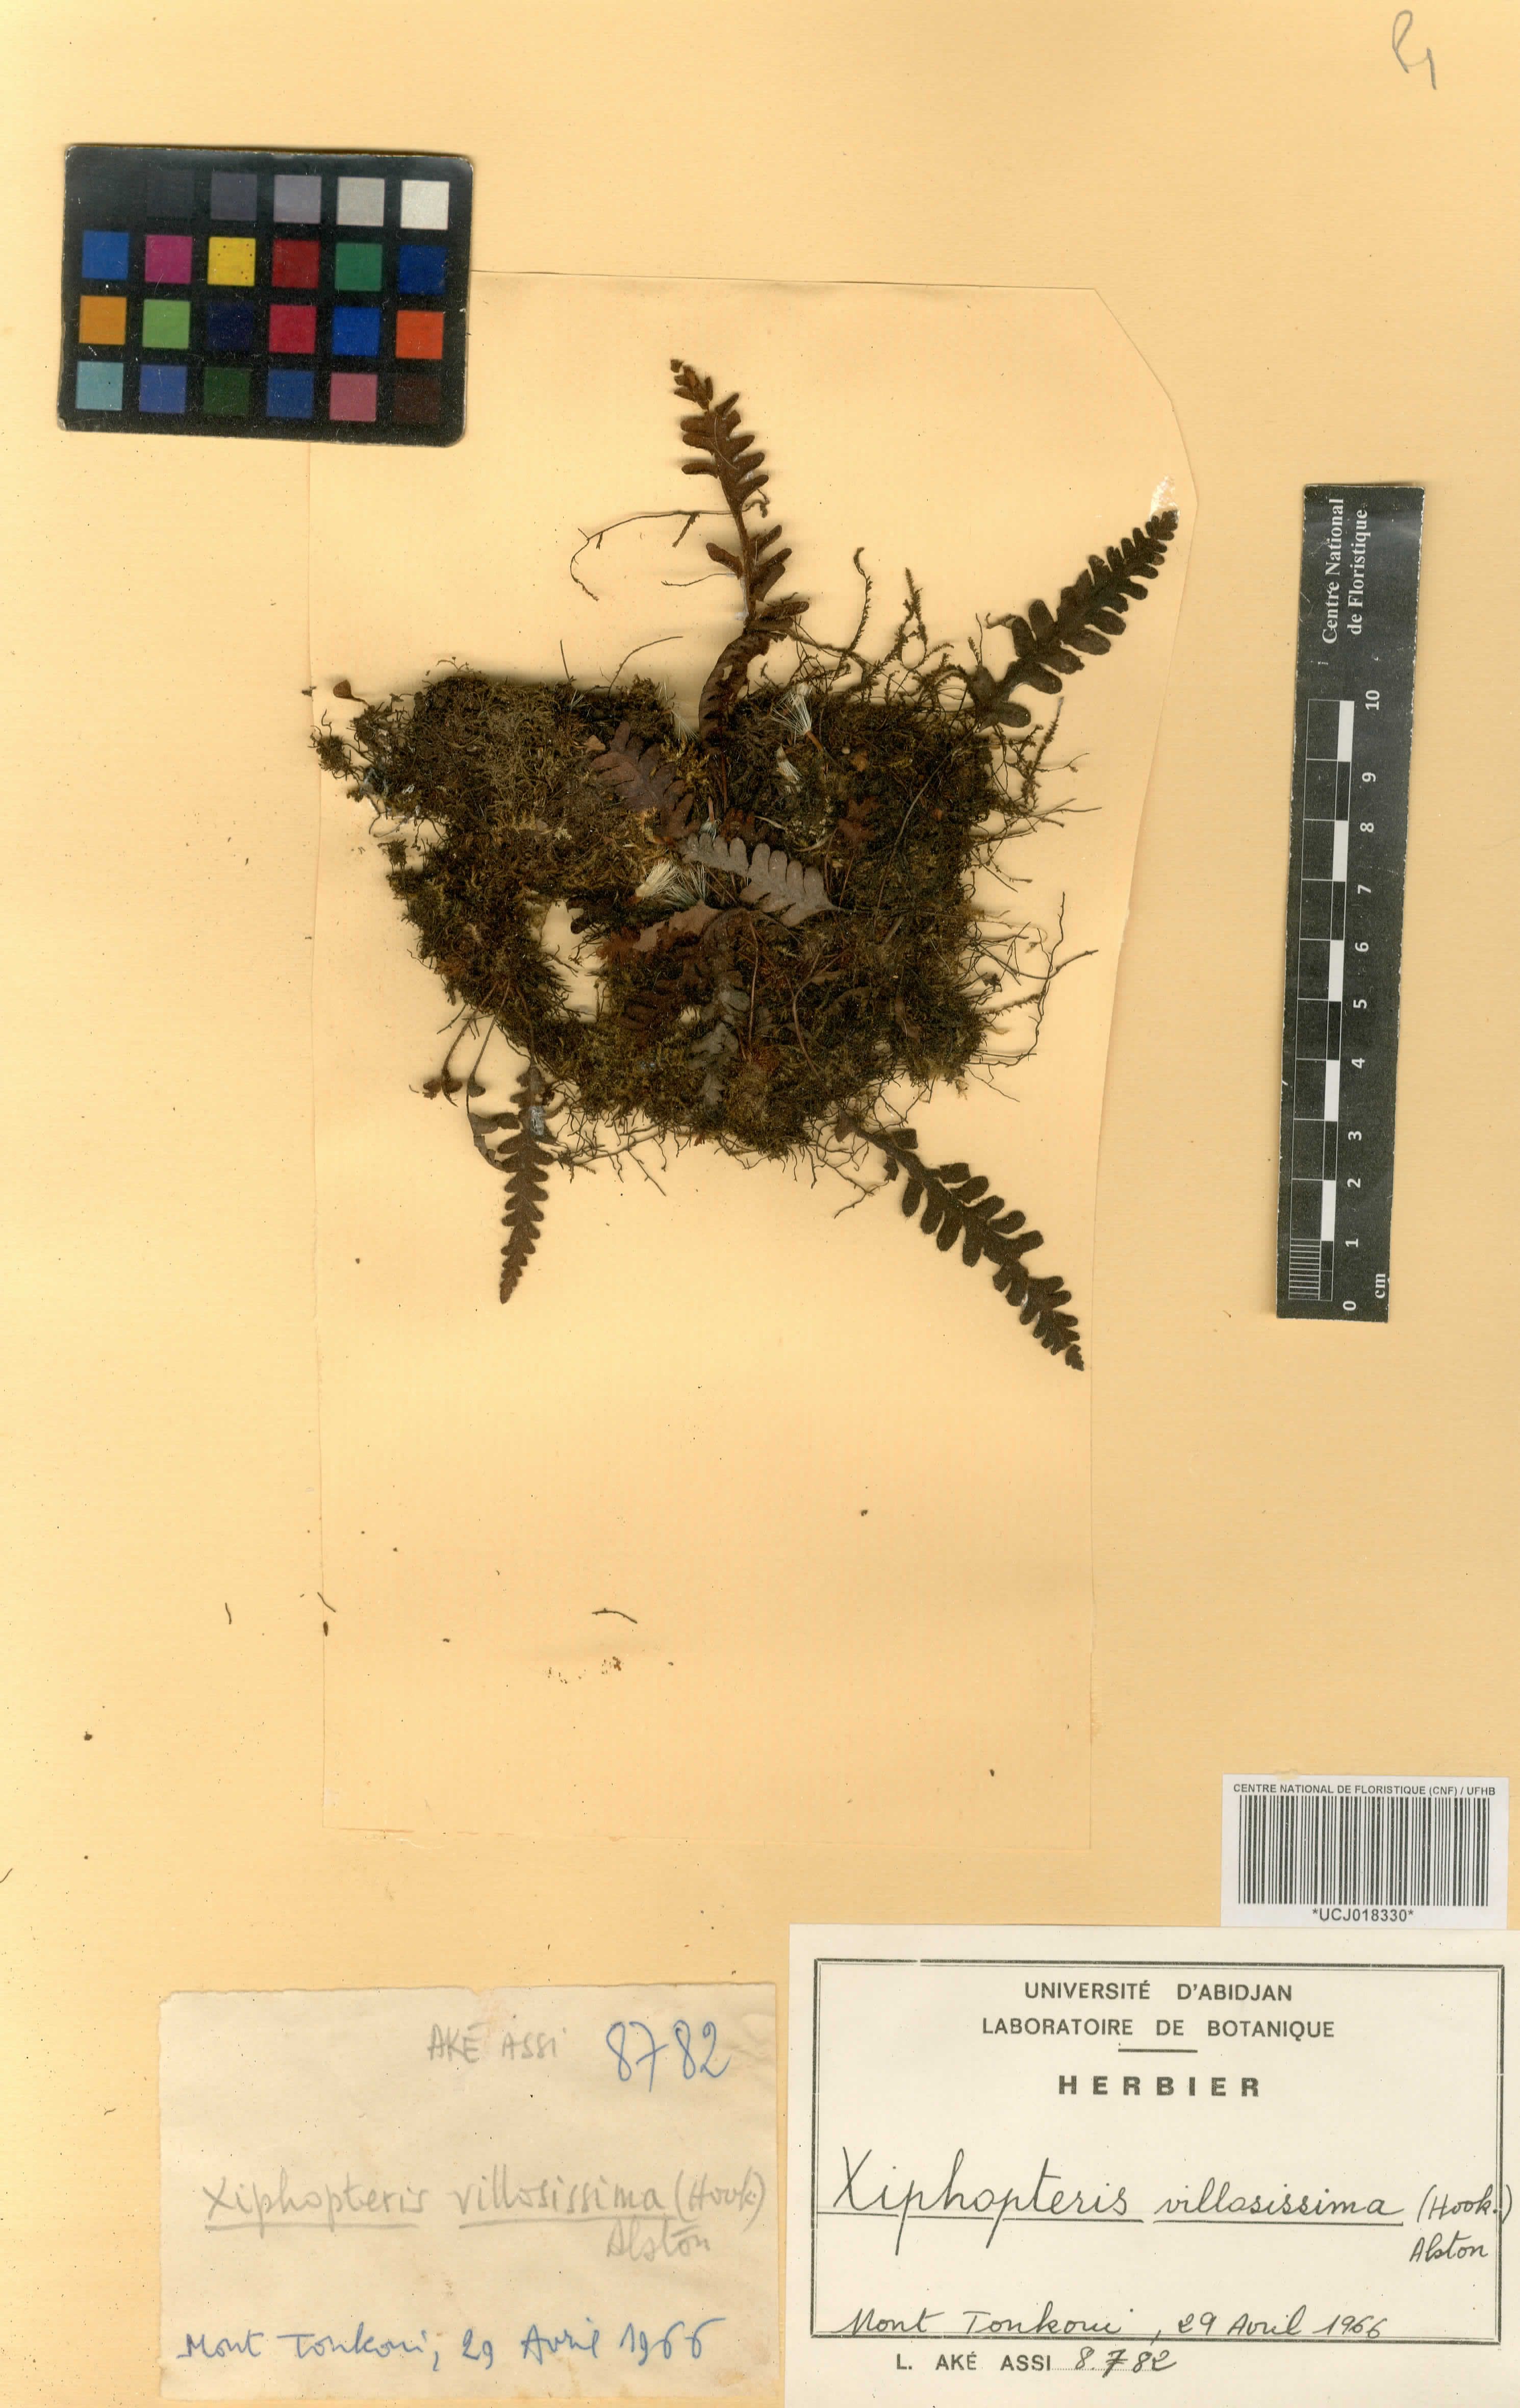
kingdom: Plantae
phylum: Tracheophyta
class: Polypodiopsida
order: Polypodiales
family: Polypodiaceae
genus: Enterosora
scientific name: Enterosora villosissima
